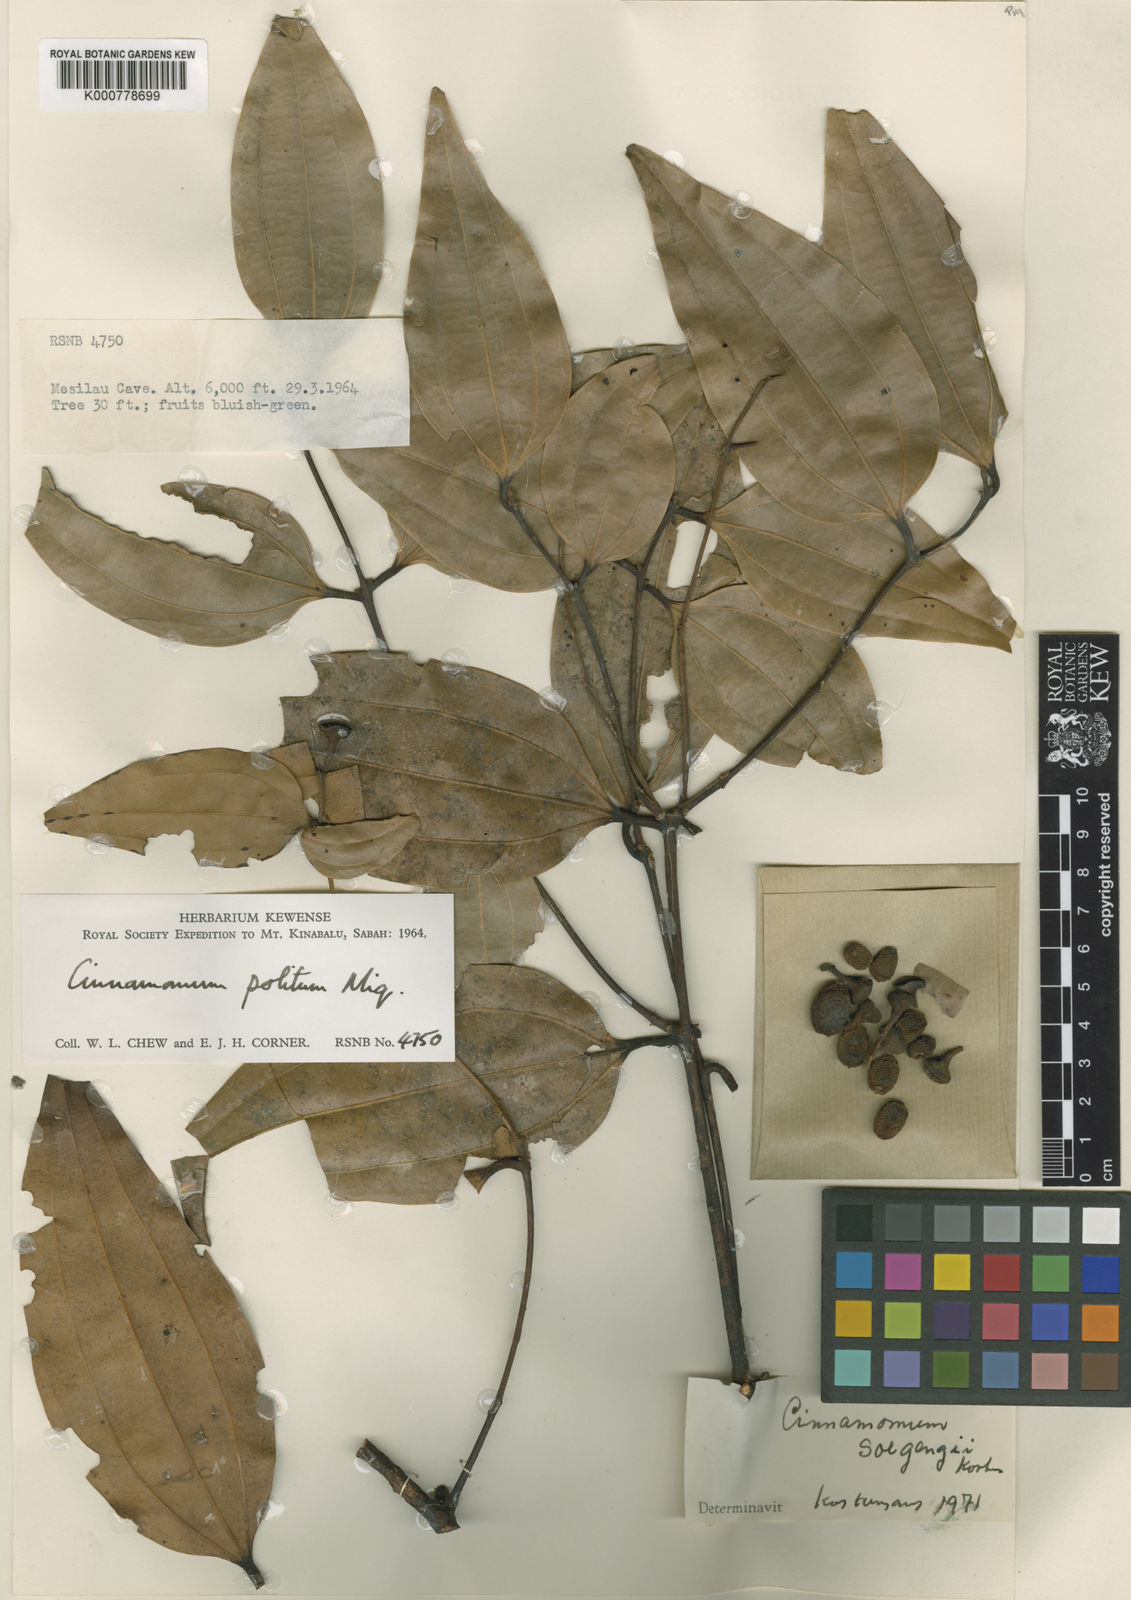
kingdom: Plantae
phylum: Tracheophyta
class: Magnoliopsida
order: Laurales
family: Lauraceae
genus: Cinnamomum
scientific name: Cinnamomum sintoc
